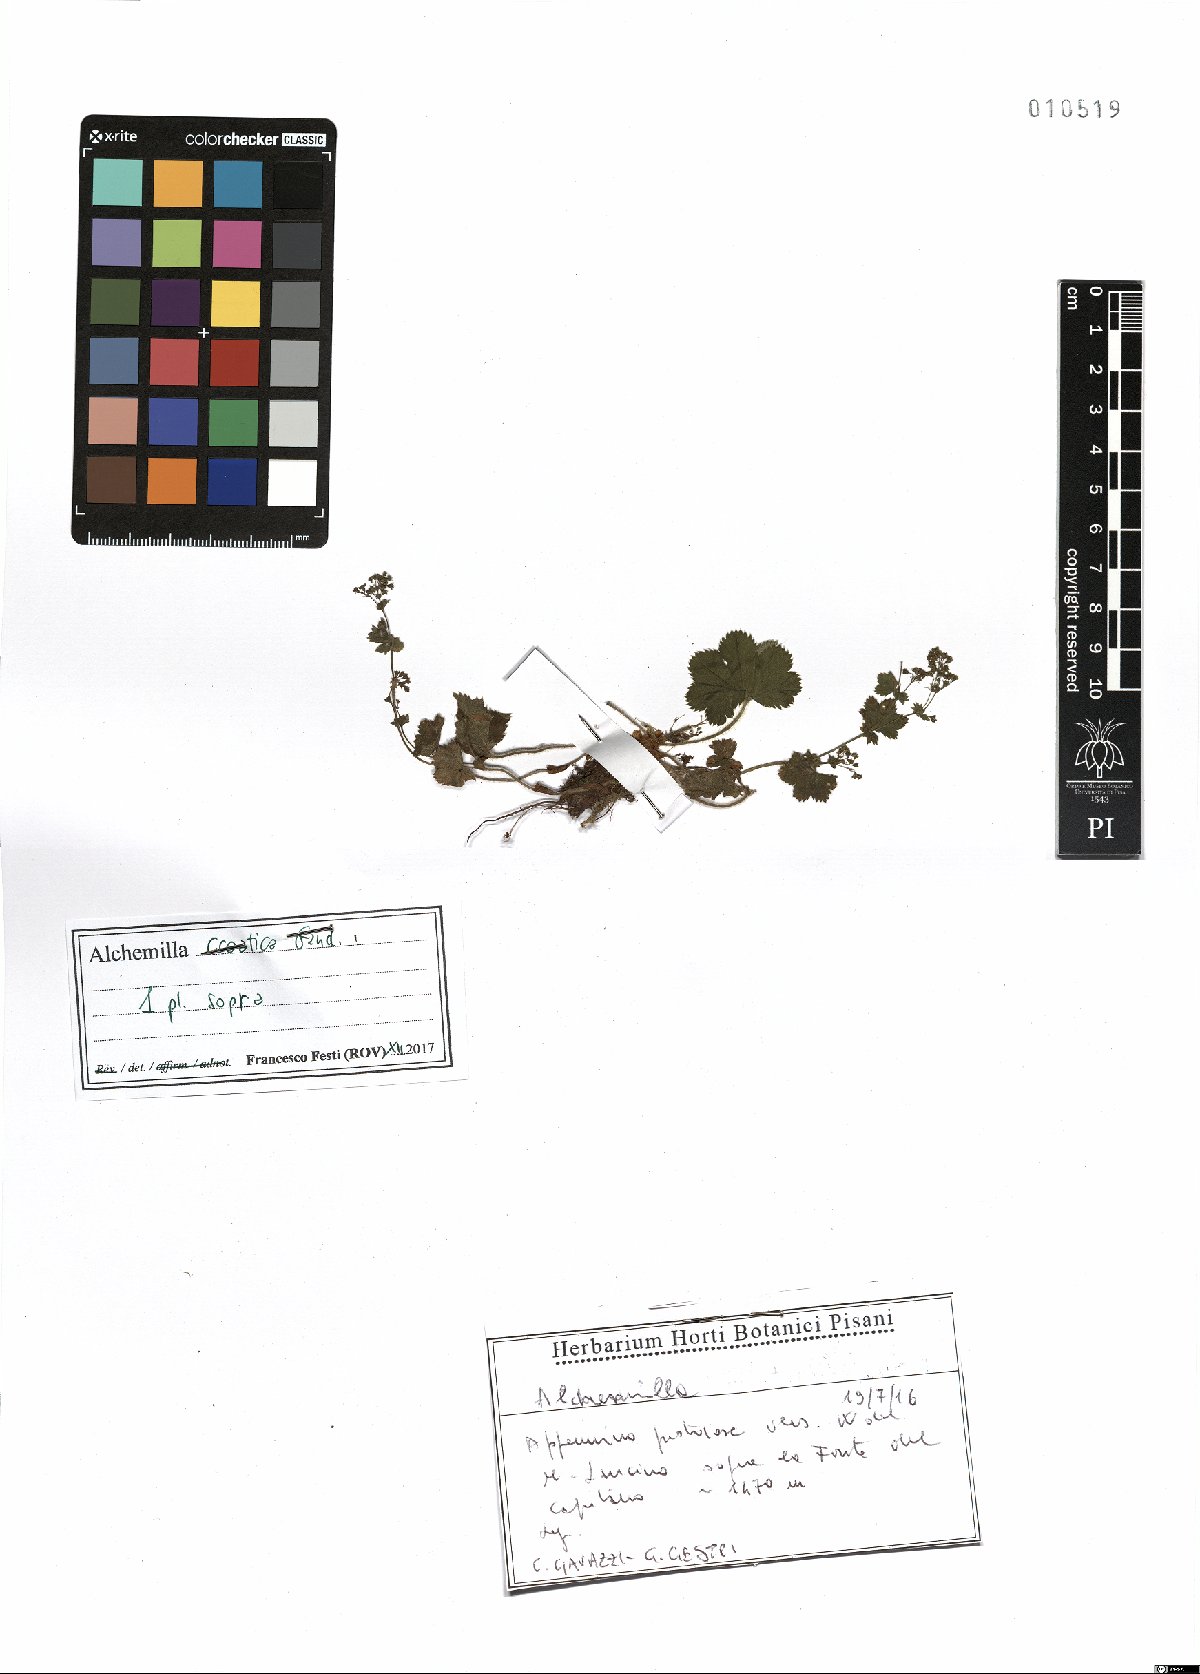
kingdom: Plantae
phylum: Tracheophyta
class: Magnoliopsida
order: Rosales
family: Rosaceae
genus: Alchemilla
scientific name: Alchemilla croatica
